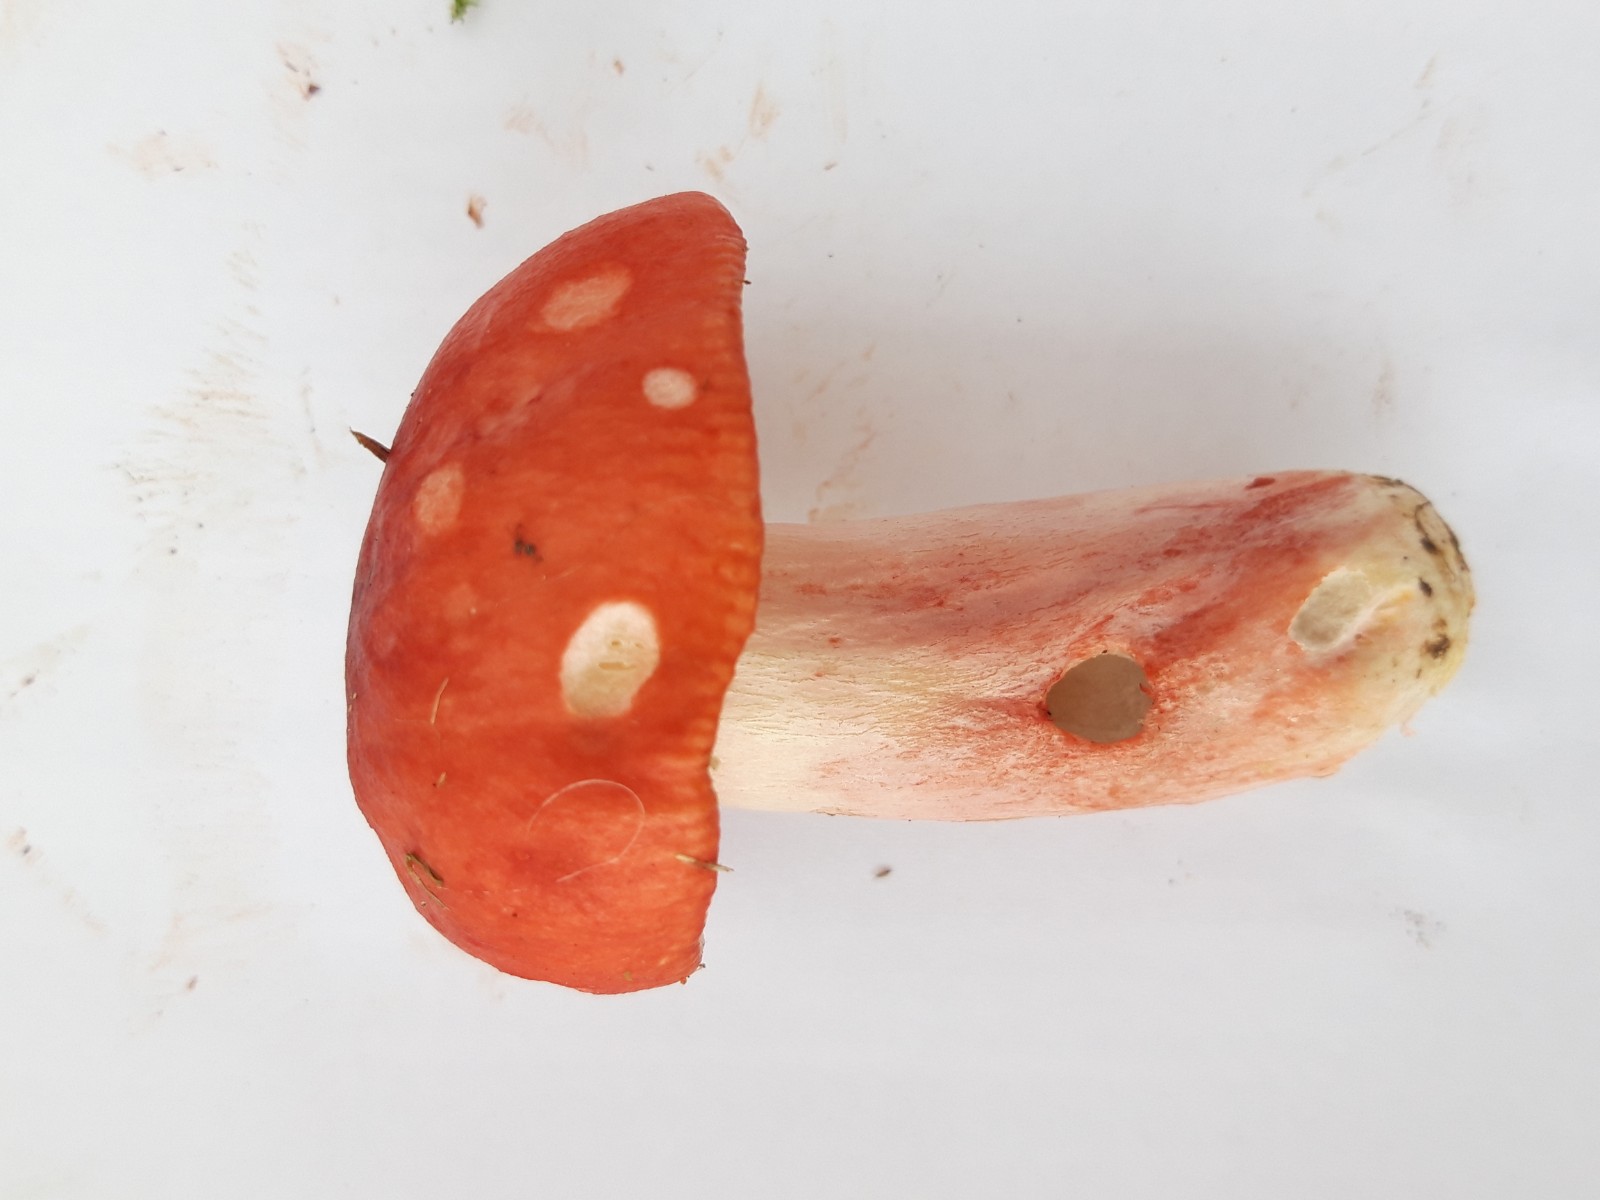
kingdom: Fungi
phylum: Basidiomycota
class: Agaricomycetes
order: Russulales
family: Russulaceae
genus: Russula
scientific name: Russula
